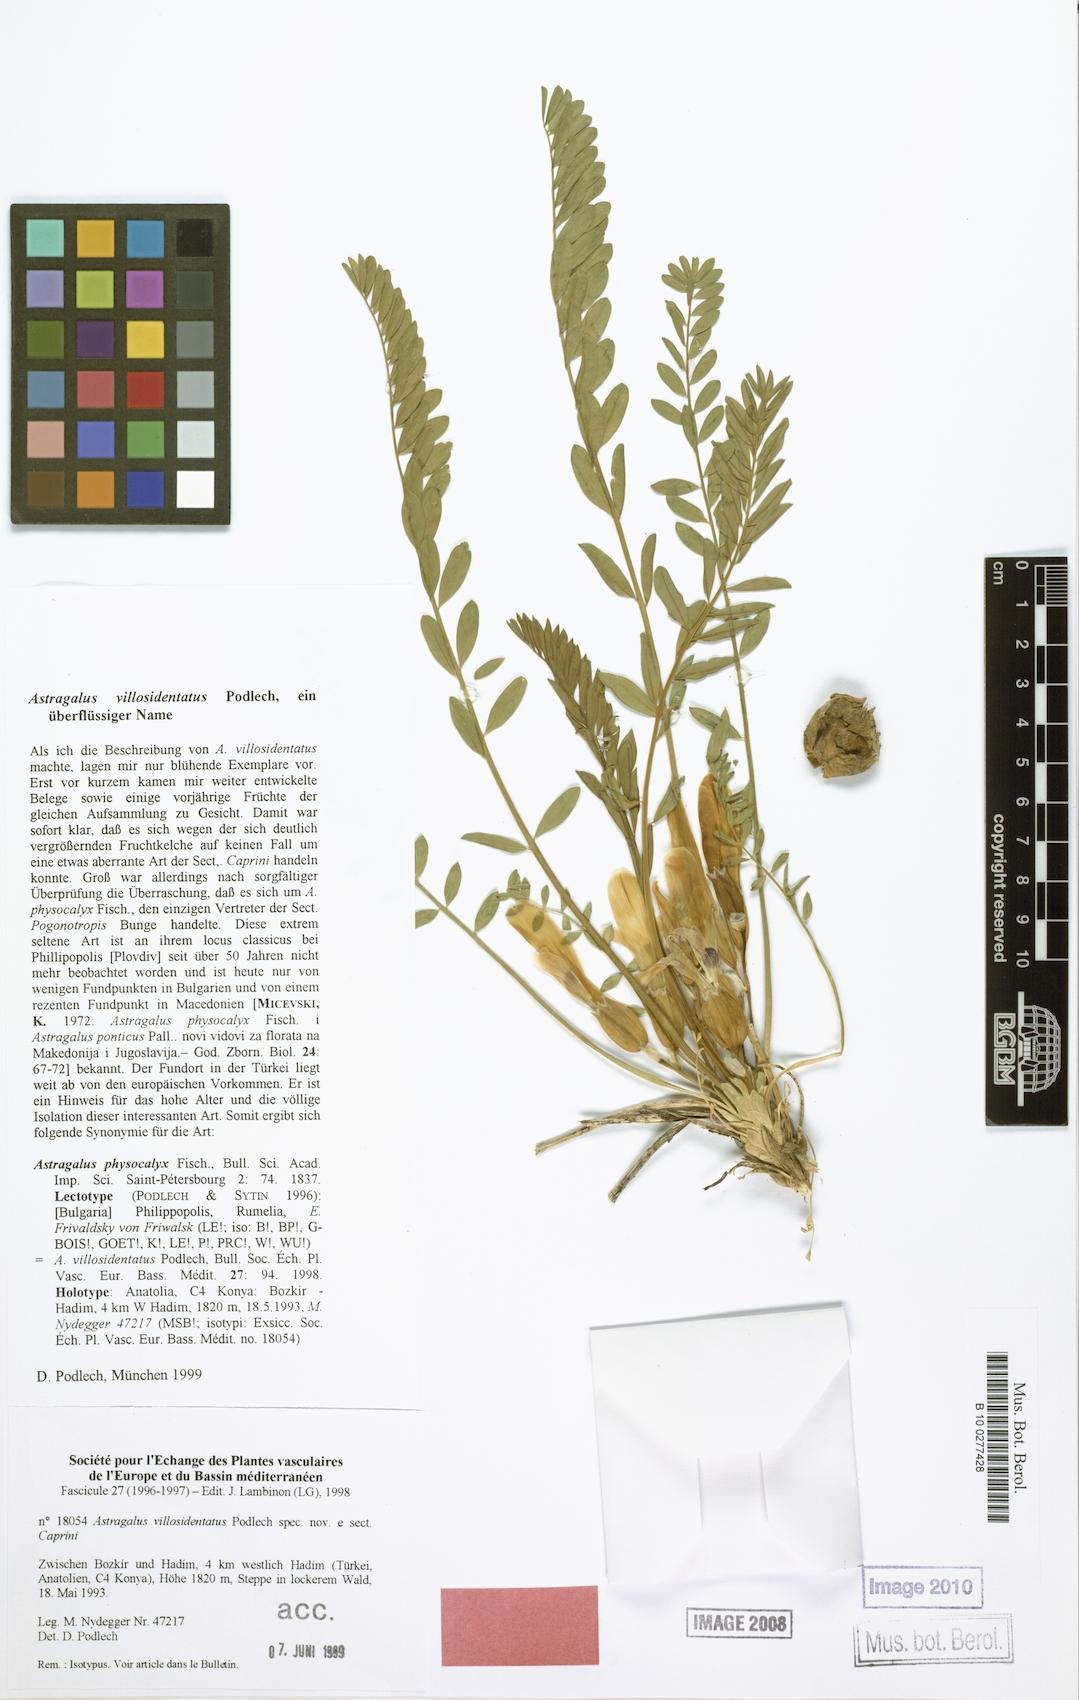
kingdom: Plantae
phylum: Tracheophyta
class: Magnoliopsida
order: Fabales
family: Fabaceae
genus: Astragalus
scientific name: Astragalus physocalyx
